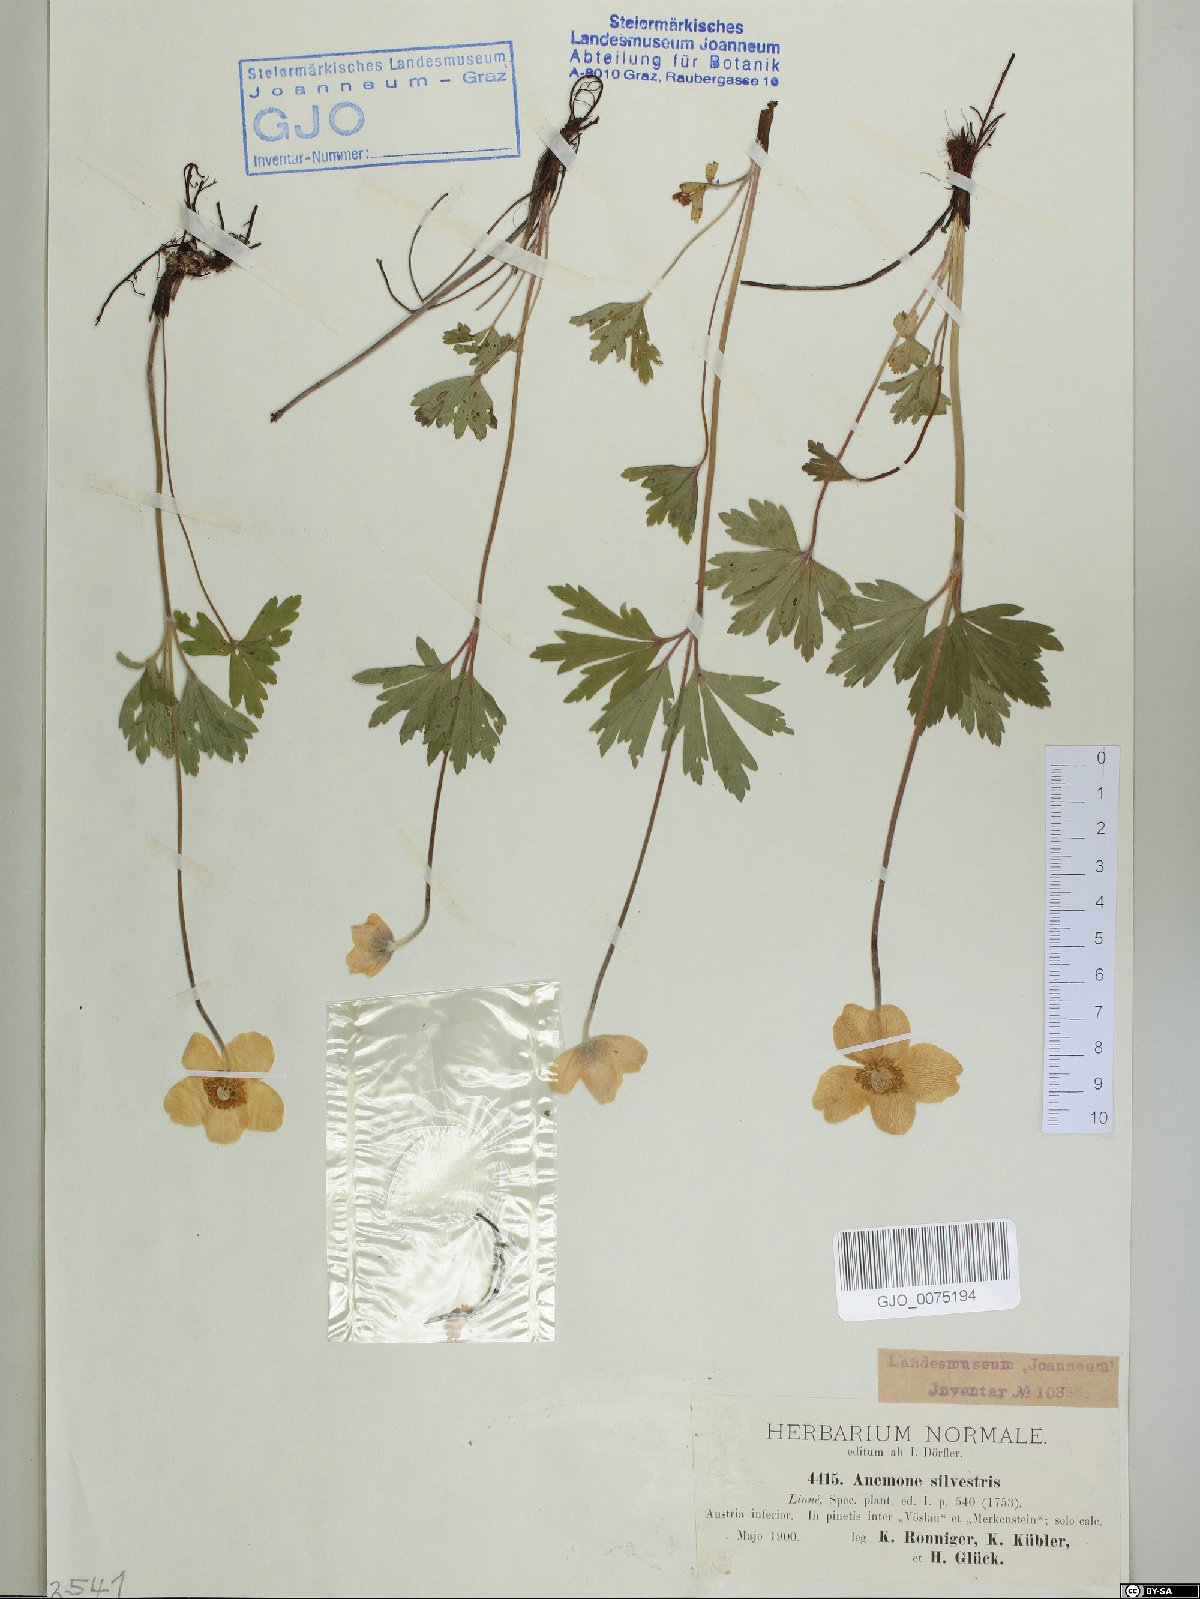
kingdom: Plantae
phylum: Tracheophyta
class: Magnoliopsida
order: Ranunculales
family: Ranunculaceae
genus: Anemone
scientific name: Anemone sylvestris
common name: Snowdrop anemone
